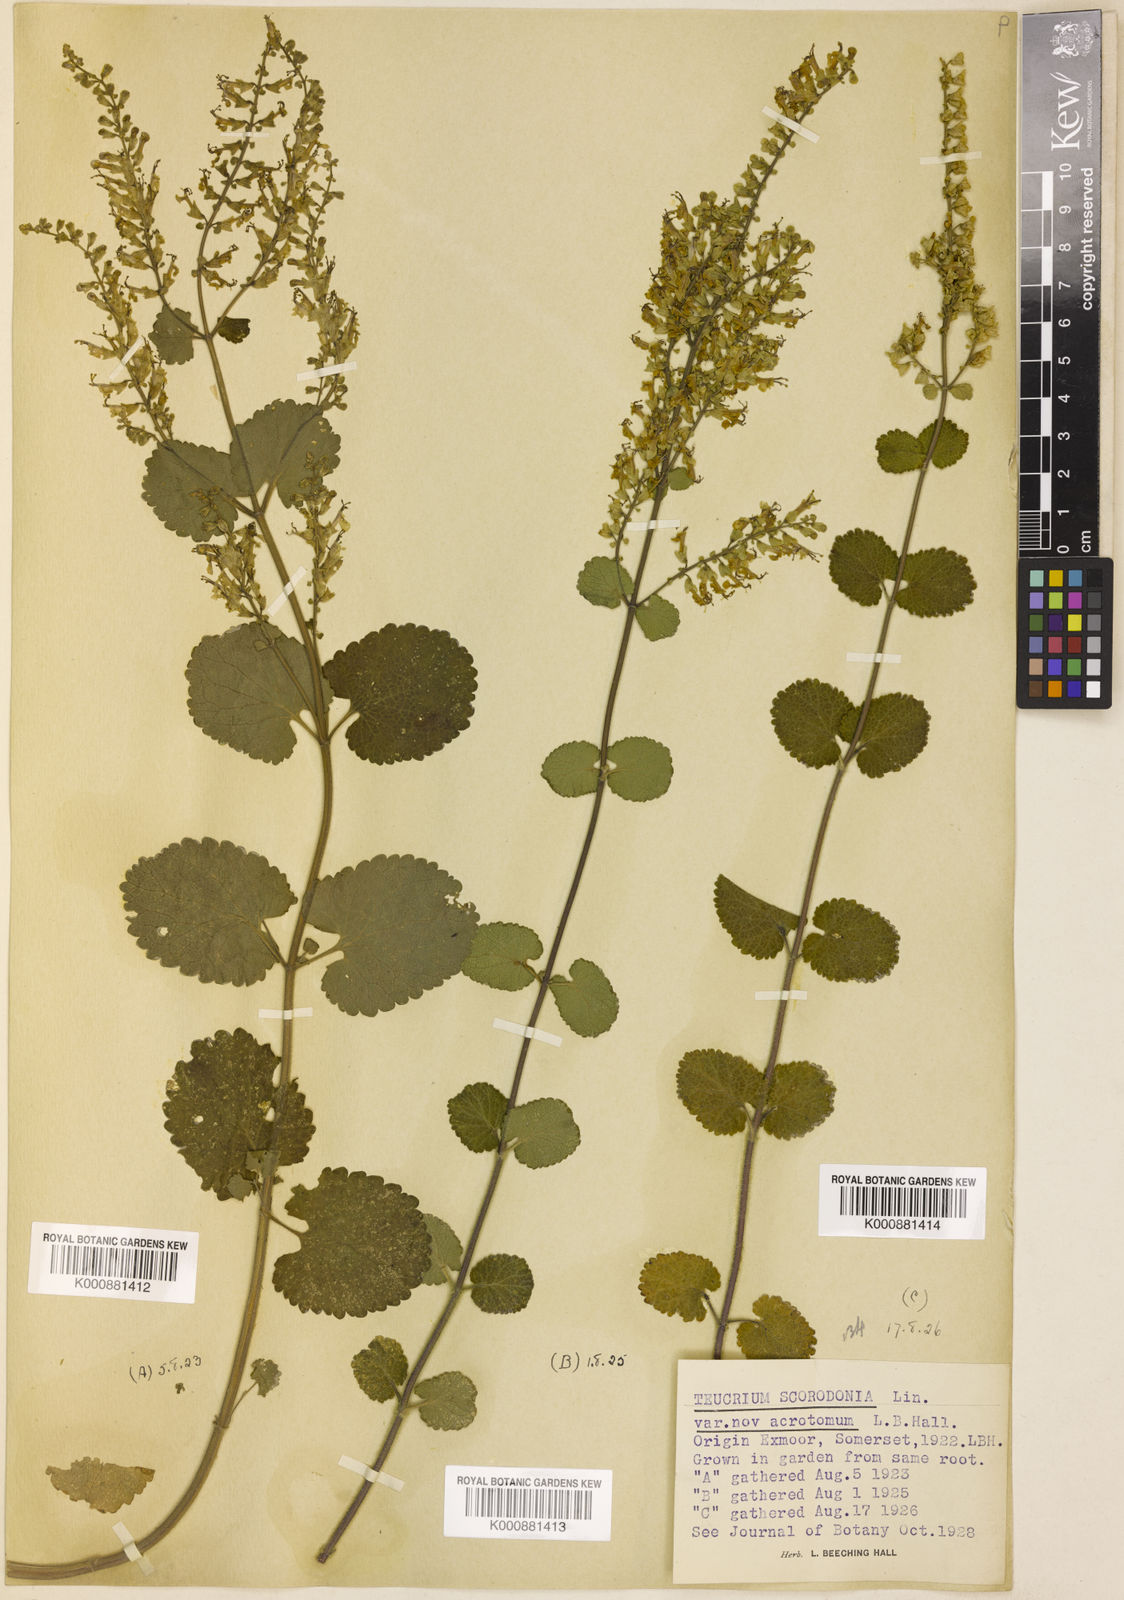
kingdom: Plantae
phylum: Tracheophyta
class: Magnoliopsida
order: Lamiales
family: Lamiaceae
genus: Teucrium
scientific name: Teucrium scorodonia
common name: Woodland germander
